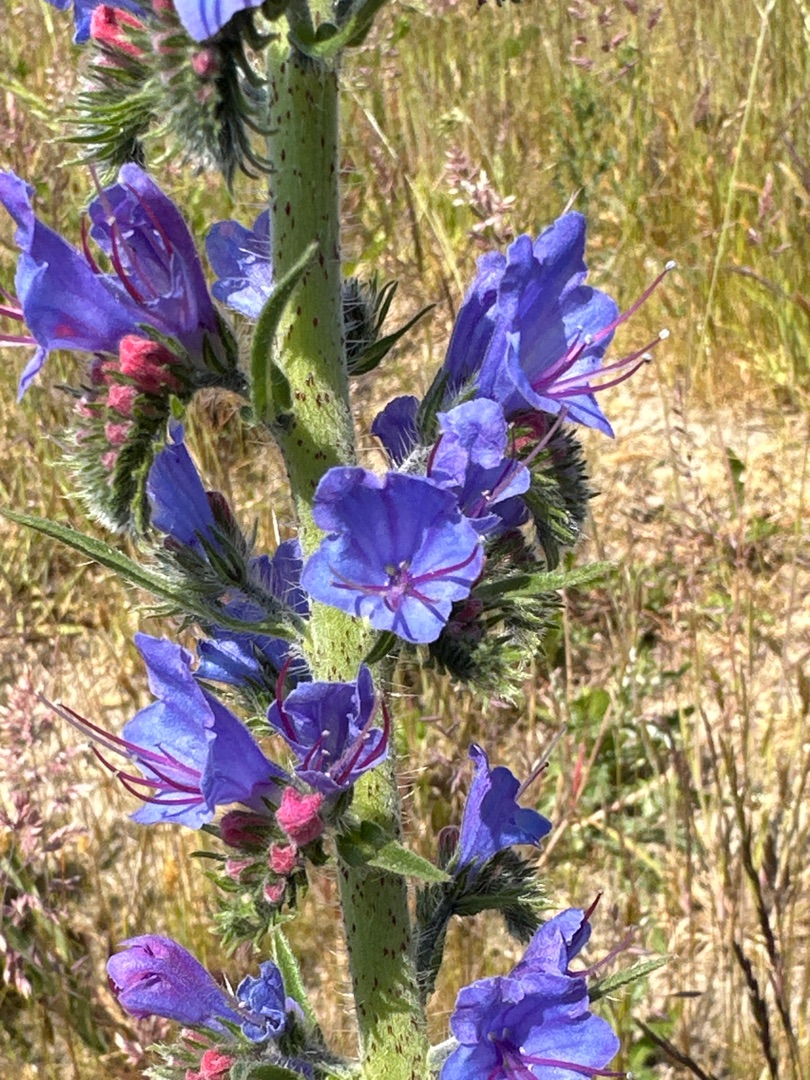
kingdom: Plantae
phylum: Tracheophyta
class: Magnoliopsida
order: Boraginales
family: Boraginaceae
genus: Echium
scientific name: Echium vulgare
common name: Slangehoved
